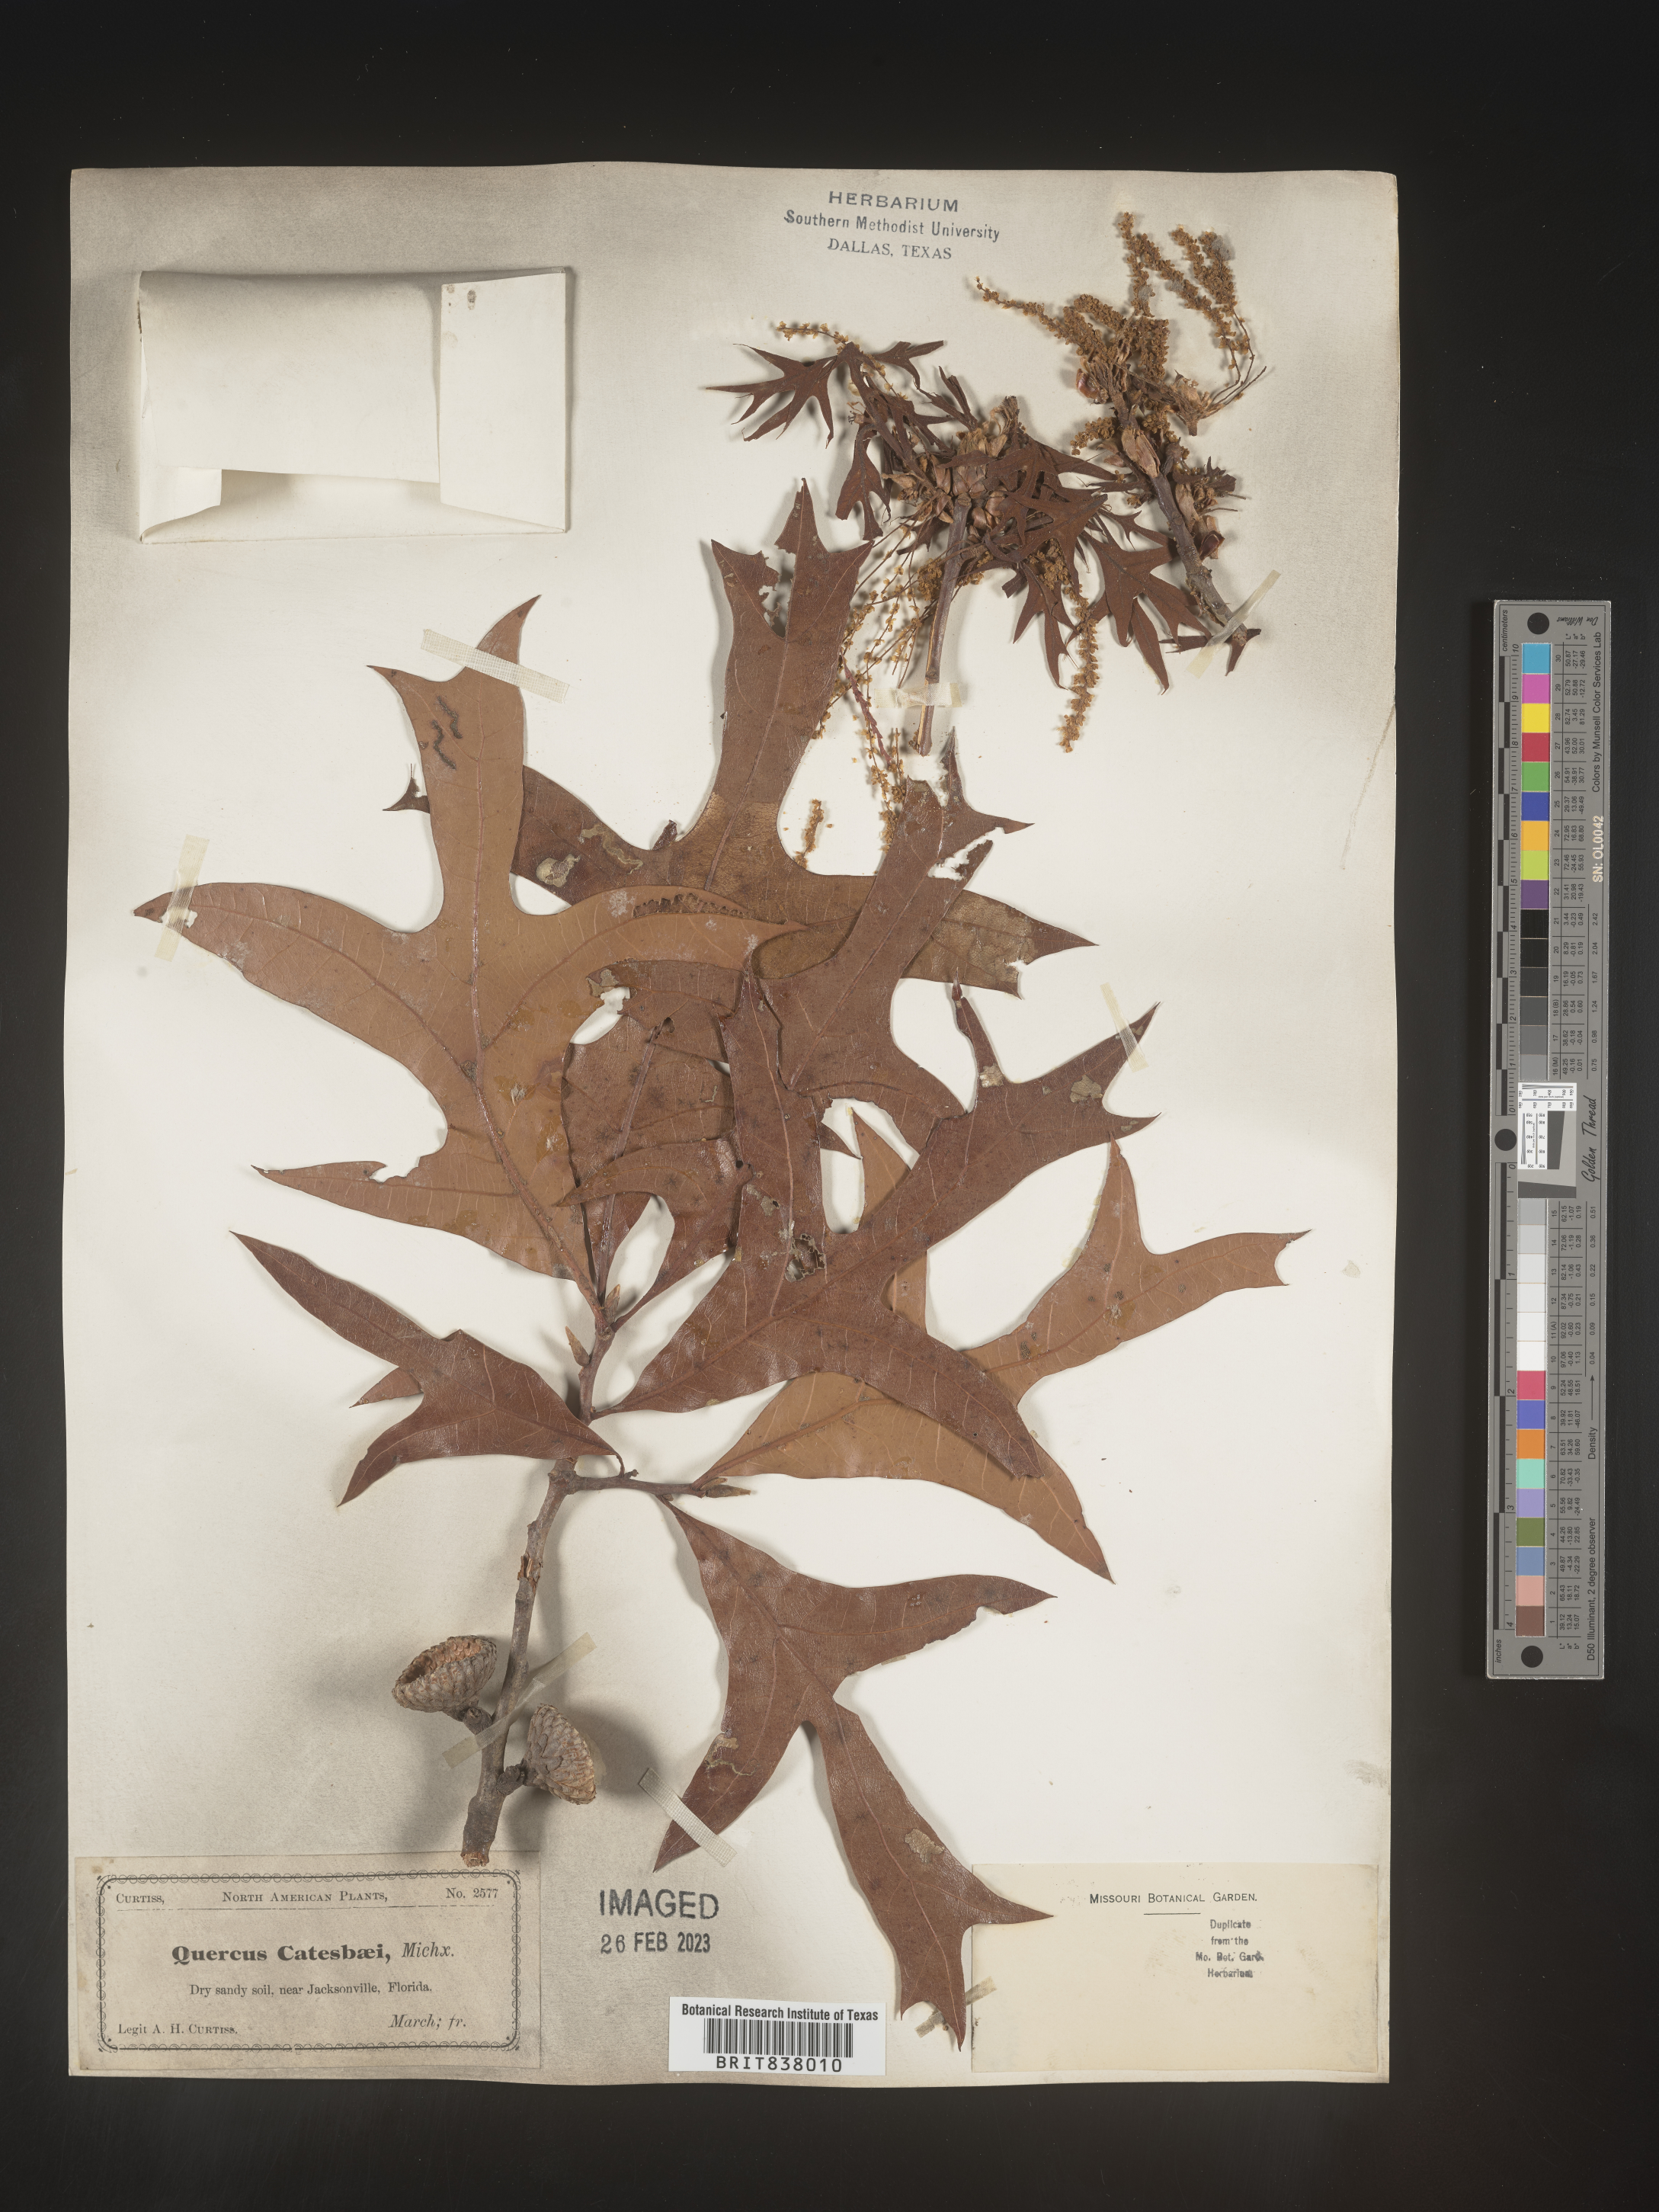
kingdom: Plantae
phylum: Tracheophyta
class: Magnoliopsida
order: Fagales
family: Fagaceae
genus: Quercus
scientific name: Quercus
